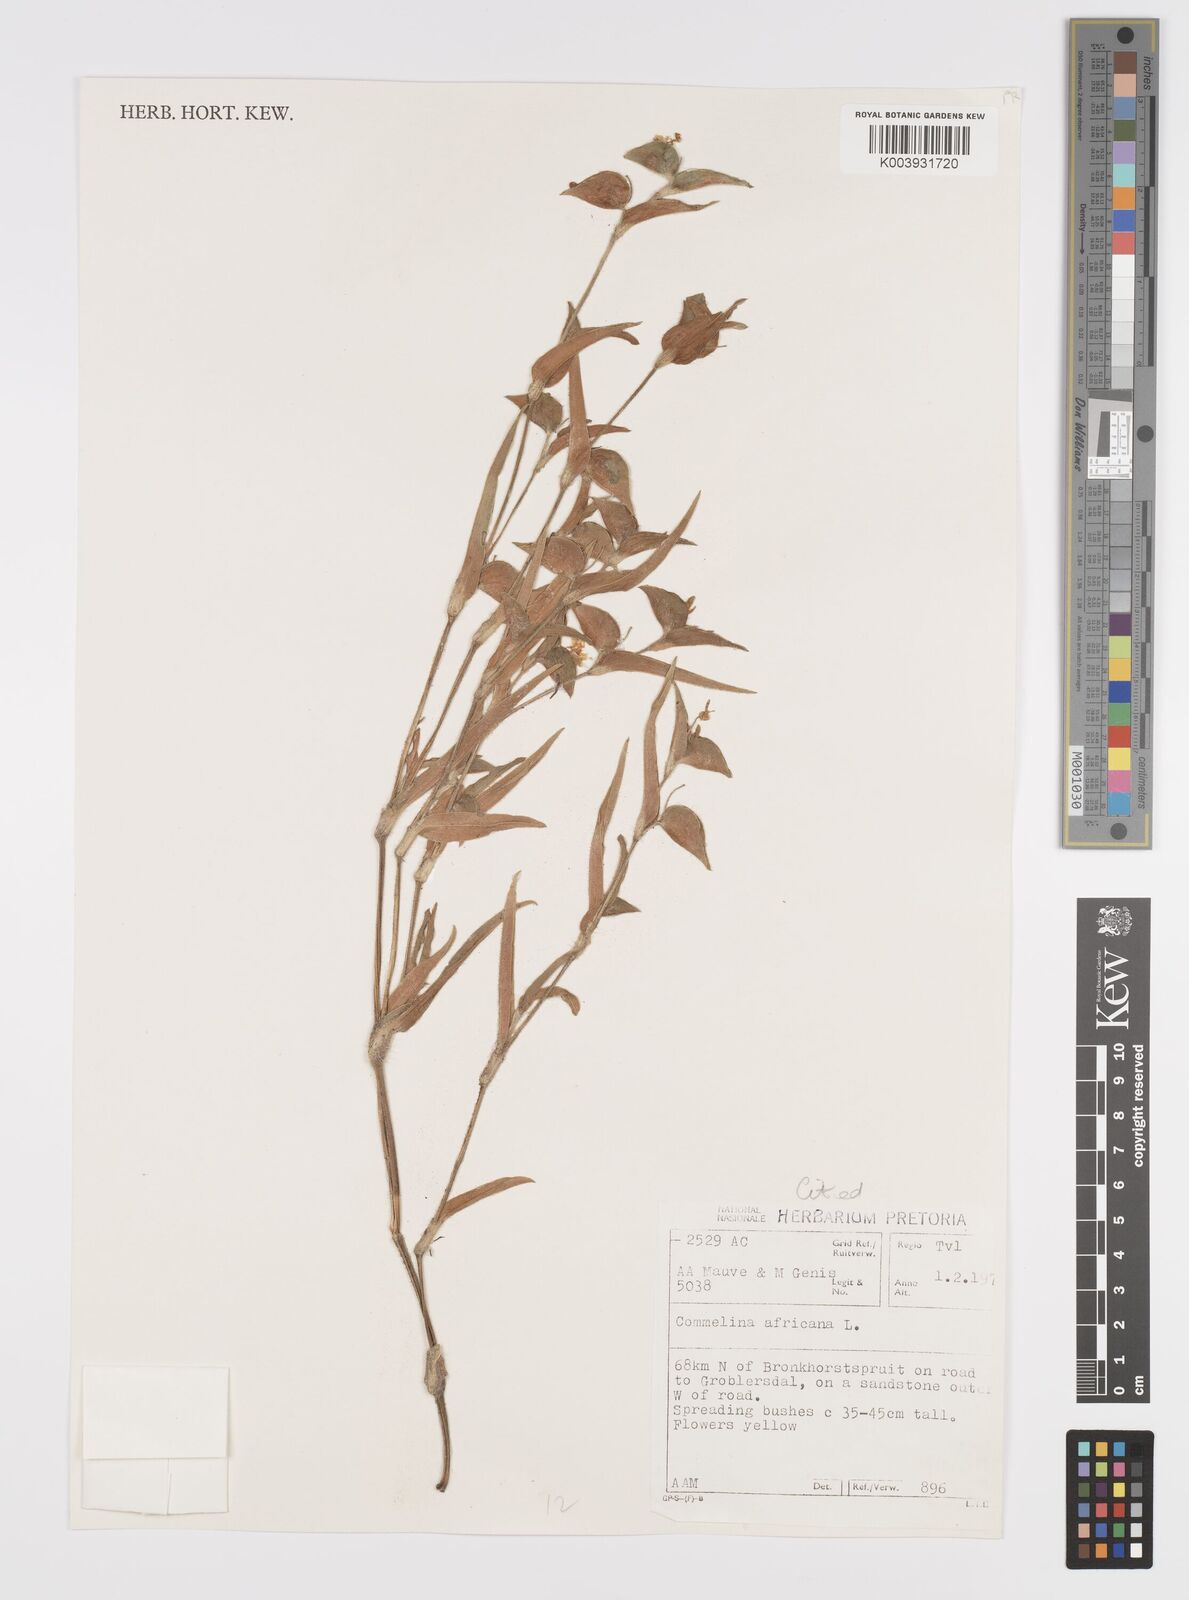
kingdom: Plantae
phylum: Tracheophyta
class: Liliopsida
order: Commelinales
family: Commelinaceae
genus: Commelina
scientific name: Commelina africana
